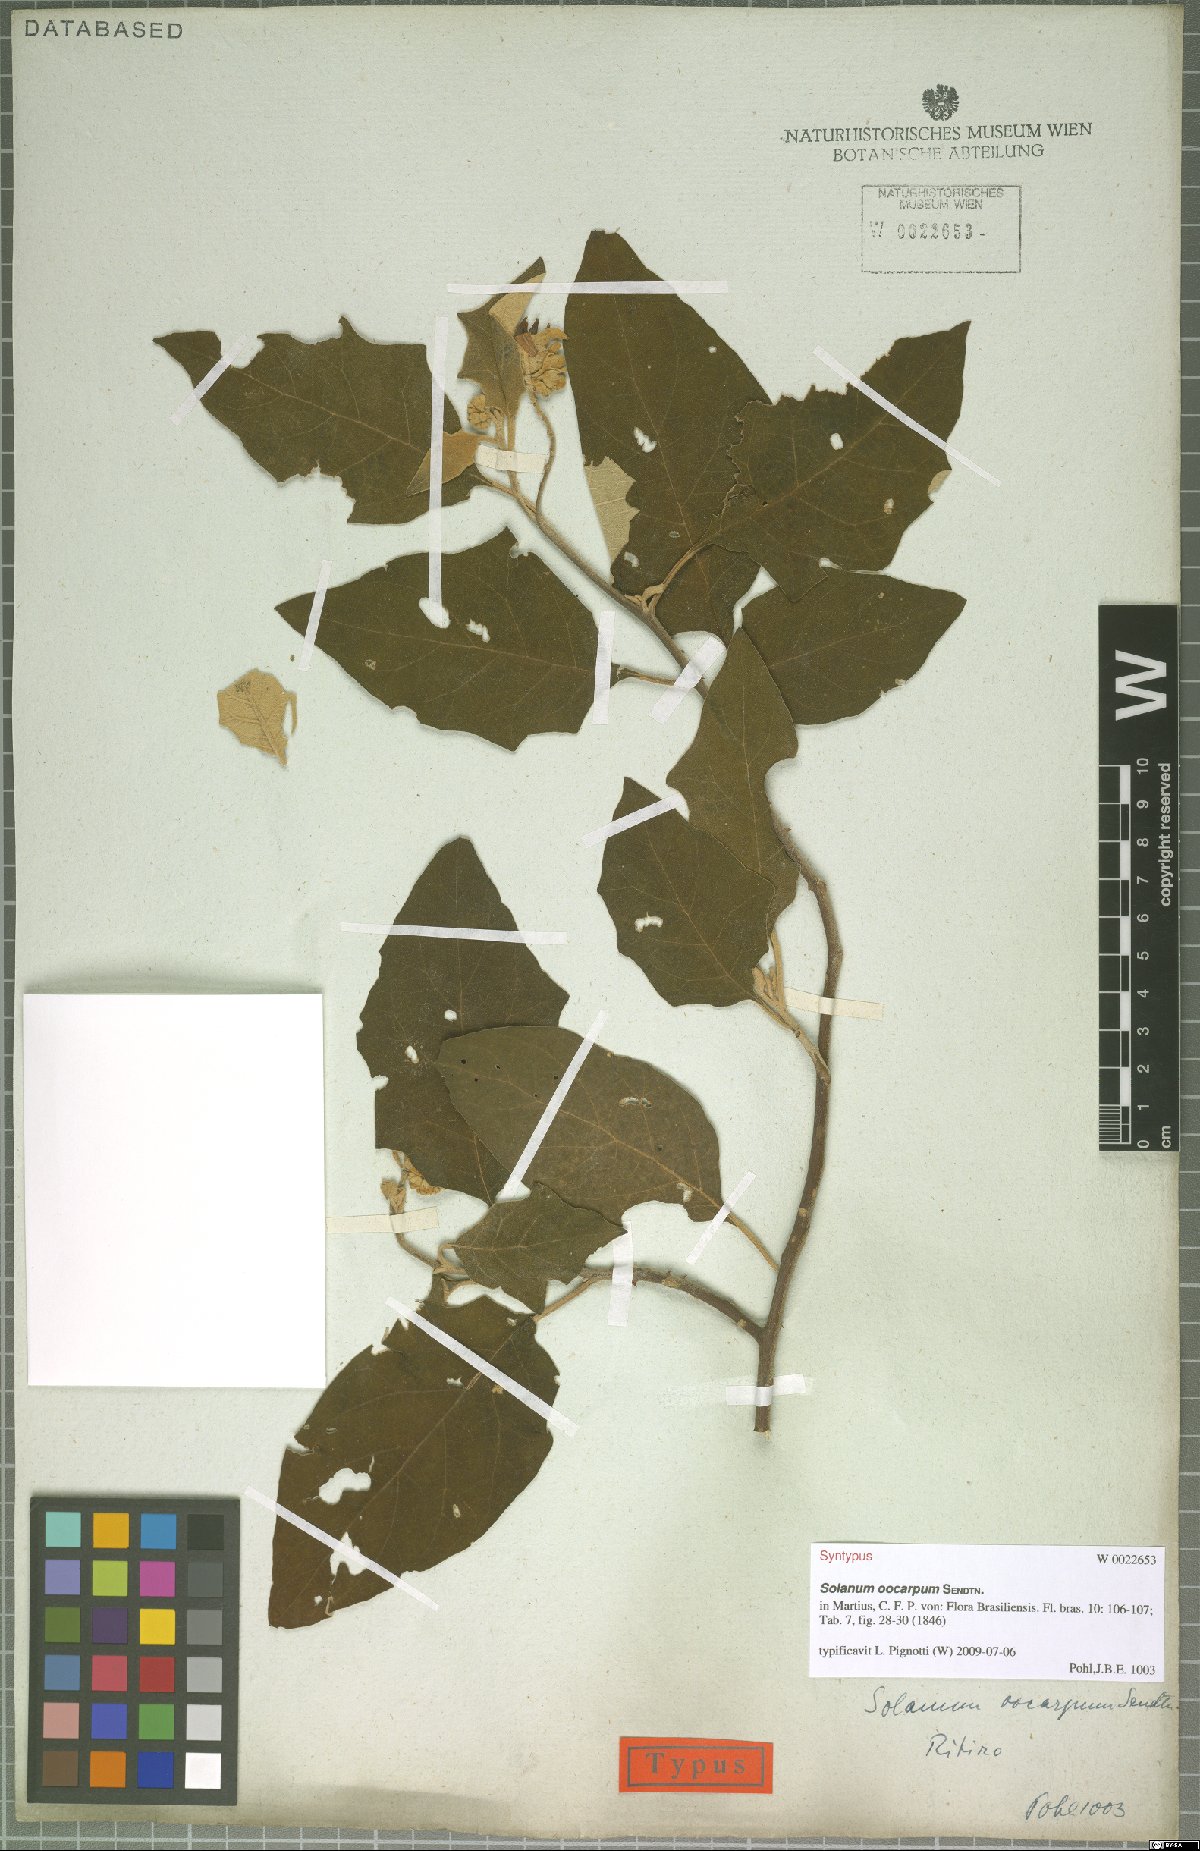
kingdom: Plantae
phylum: Tracheophyta
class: Magnoliopsida
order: Solanales
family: Solanaceae
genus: Solanum
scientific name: Solanum oocarpum
